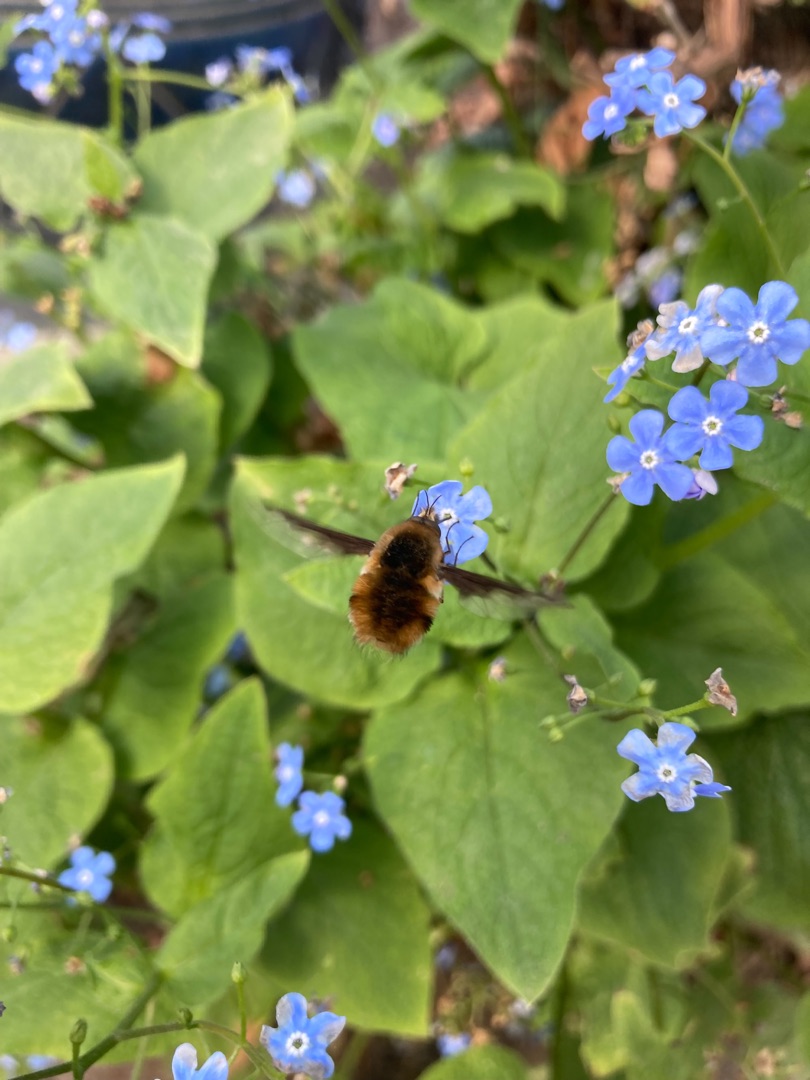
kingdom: Animalia
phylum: Arthropoda
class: Insecta
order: Diptera
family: Bombyliidae
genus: Bombylius
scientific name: Bombylius major
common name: Stor humleflue
